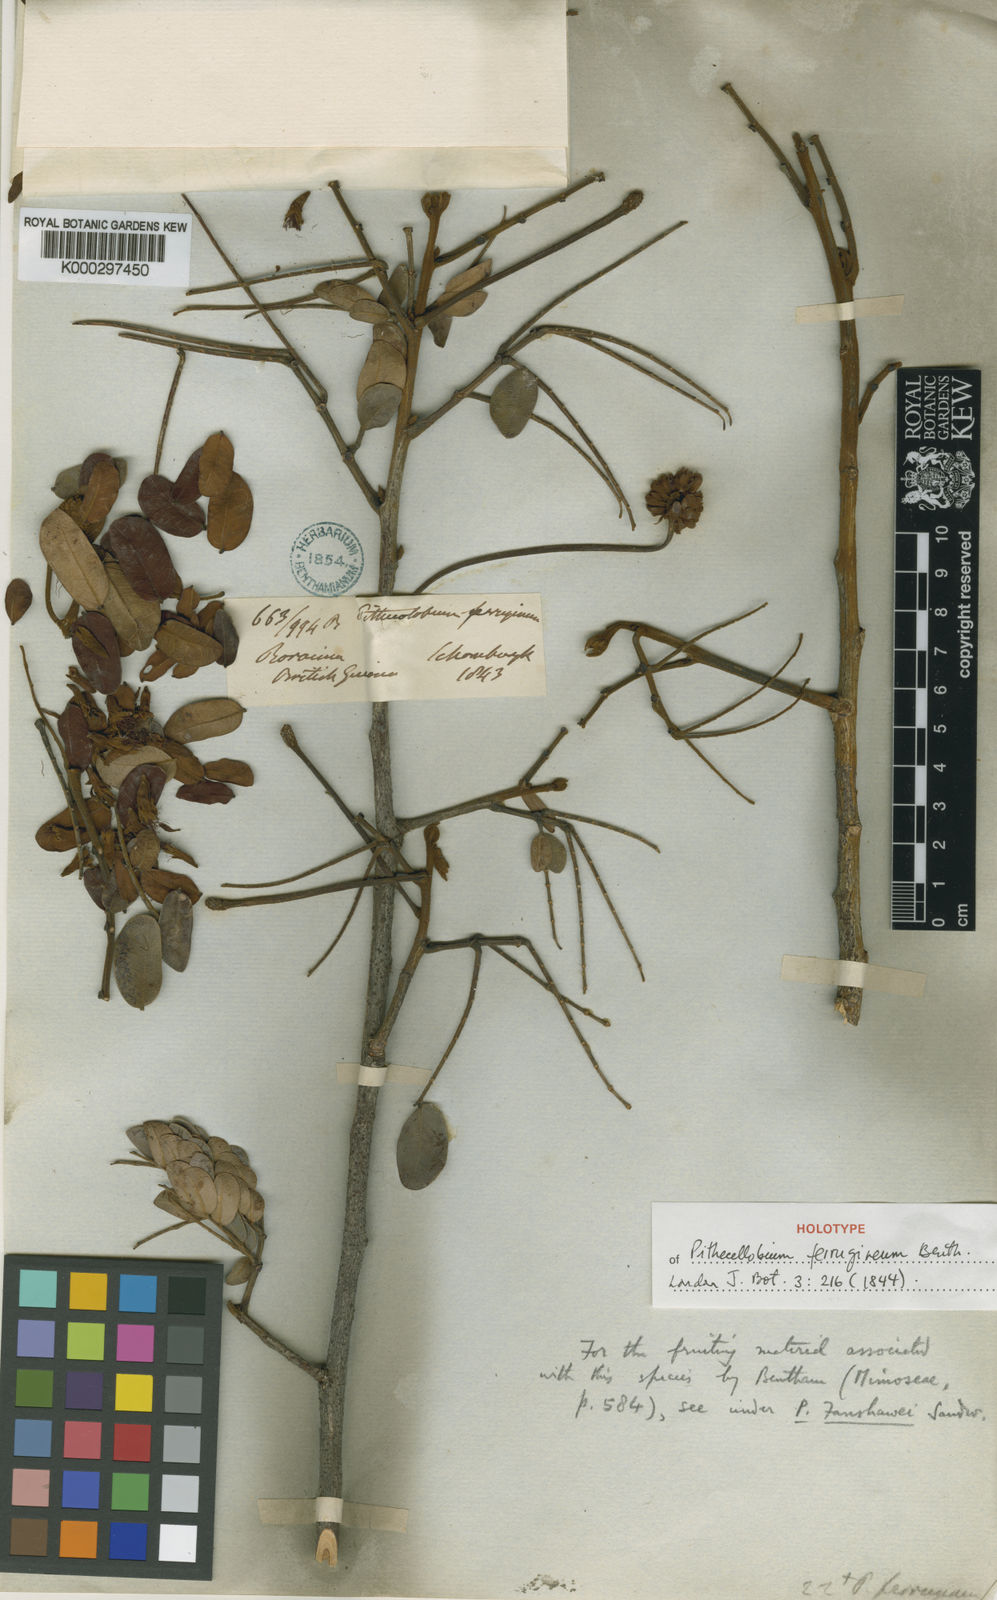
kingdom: Plantae
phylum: Tracheophyta
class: Magnoliopsida
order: Fabales
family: Fabaceae
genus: Abarema
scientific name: Abarema
